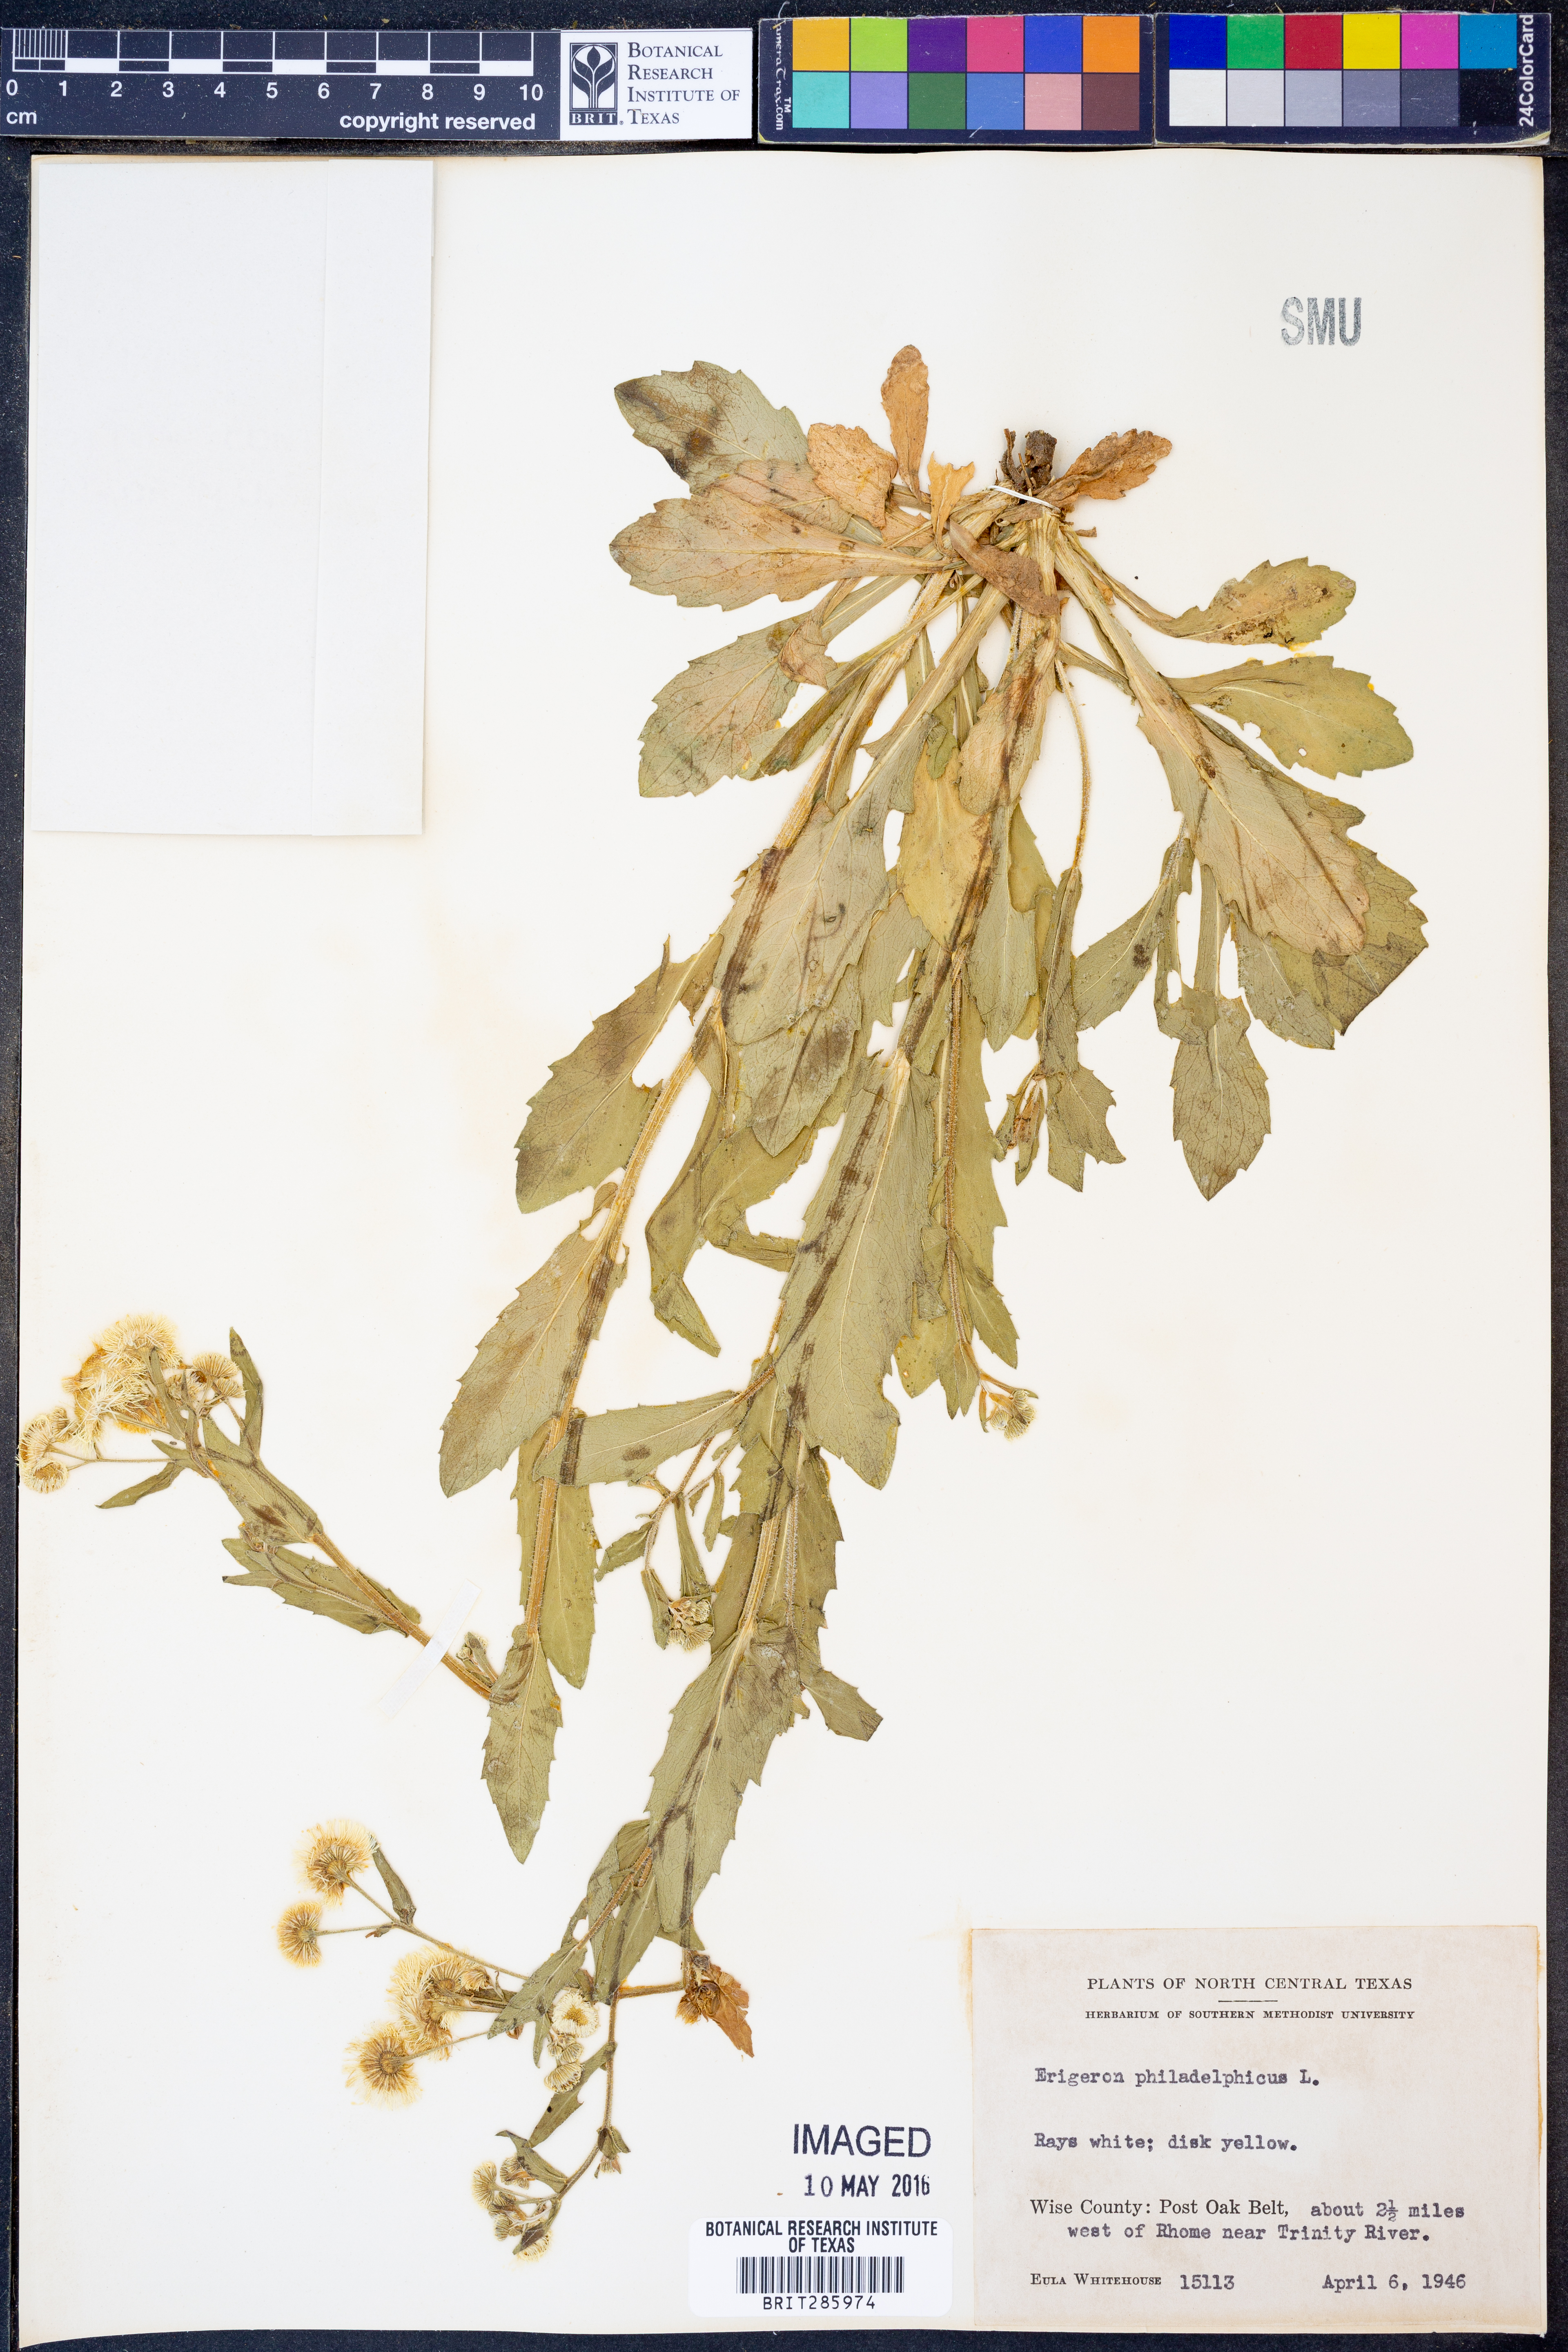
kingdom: Plantae
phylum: Tracheophyta
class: Magnoliopsida
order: Asterales
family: Asteraceae
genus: Erigeron
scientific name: Erigeron philadelphicus
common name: Robin's-plantain
